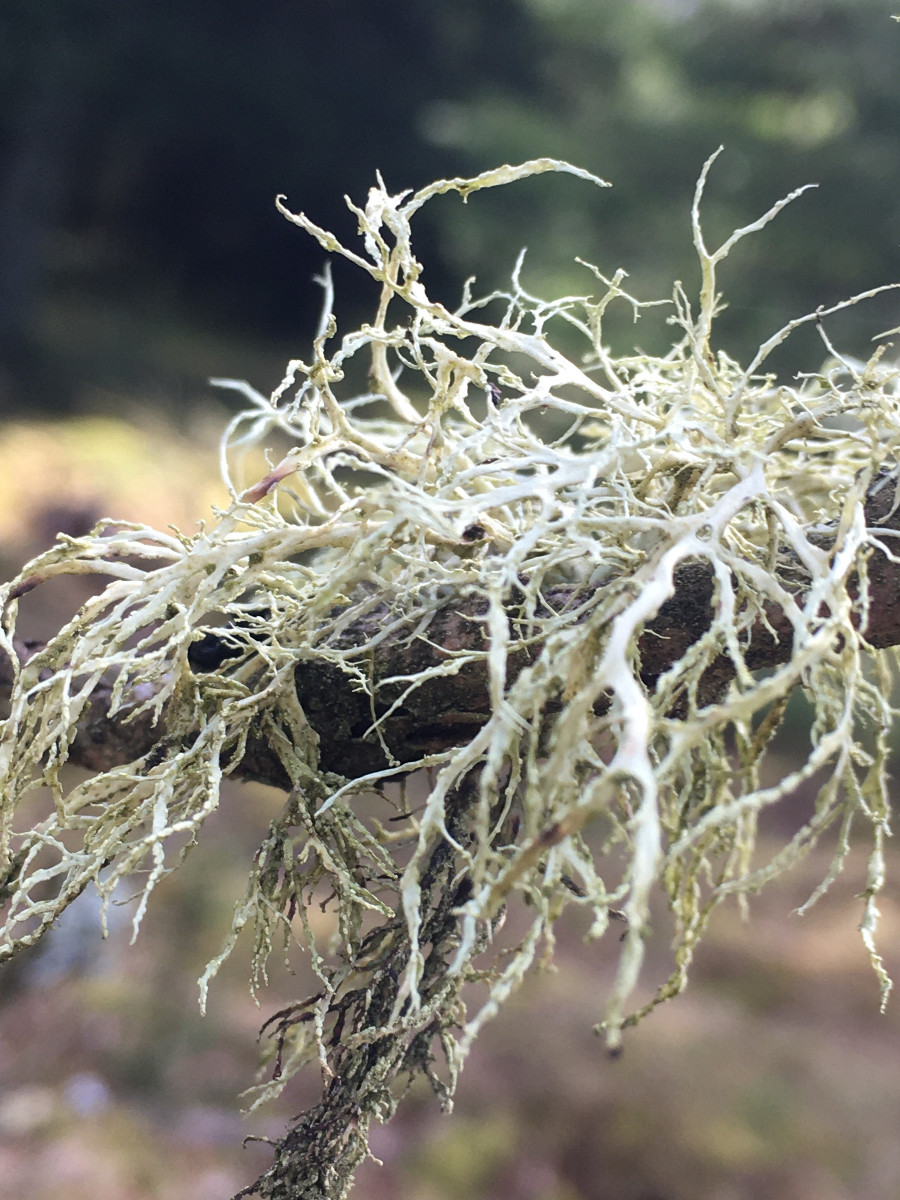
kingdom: Fungi
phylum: Ascomycota
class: Lecanoromycetes
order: Lecanorales
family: Ramalinaceae
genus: Ramalina
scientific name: Ramalina farinacea
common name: melet grenlav
